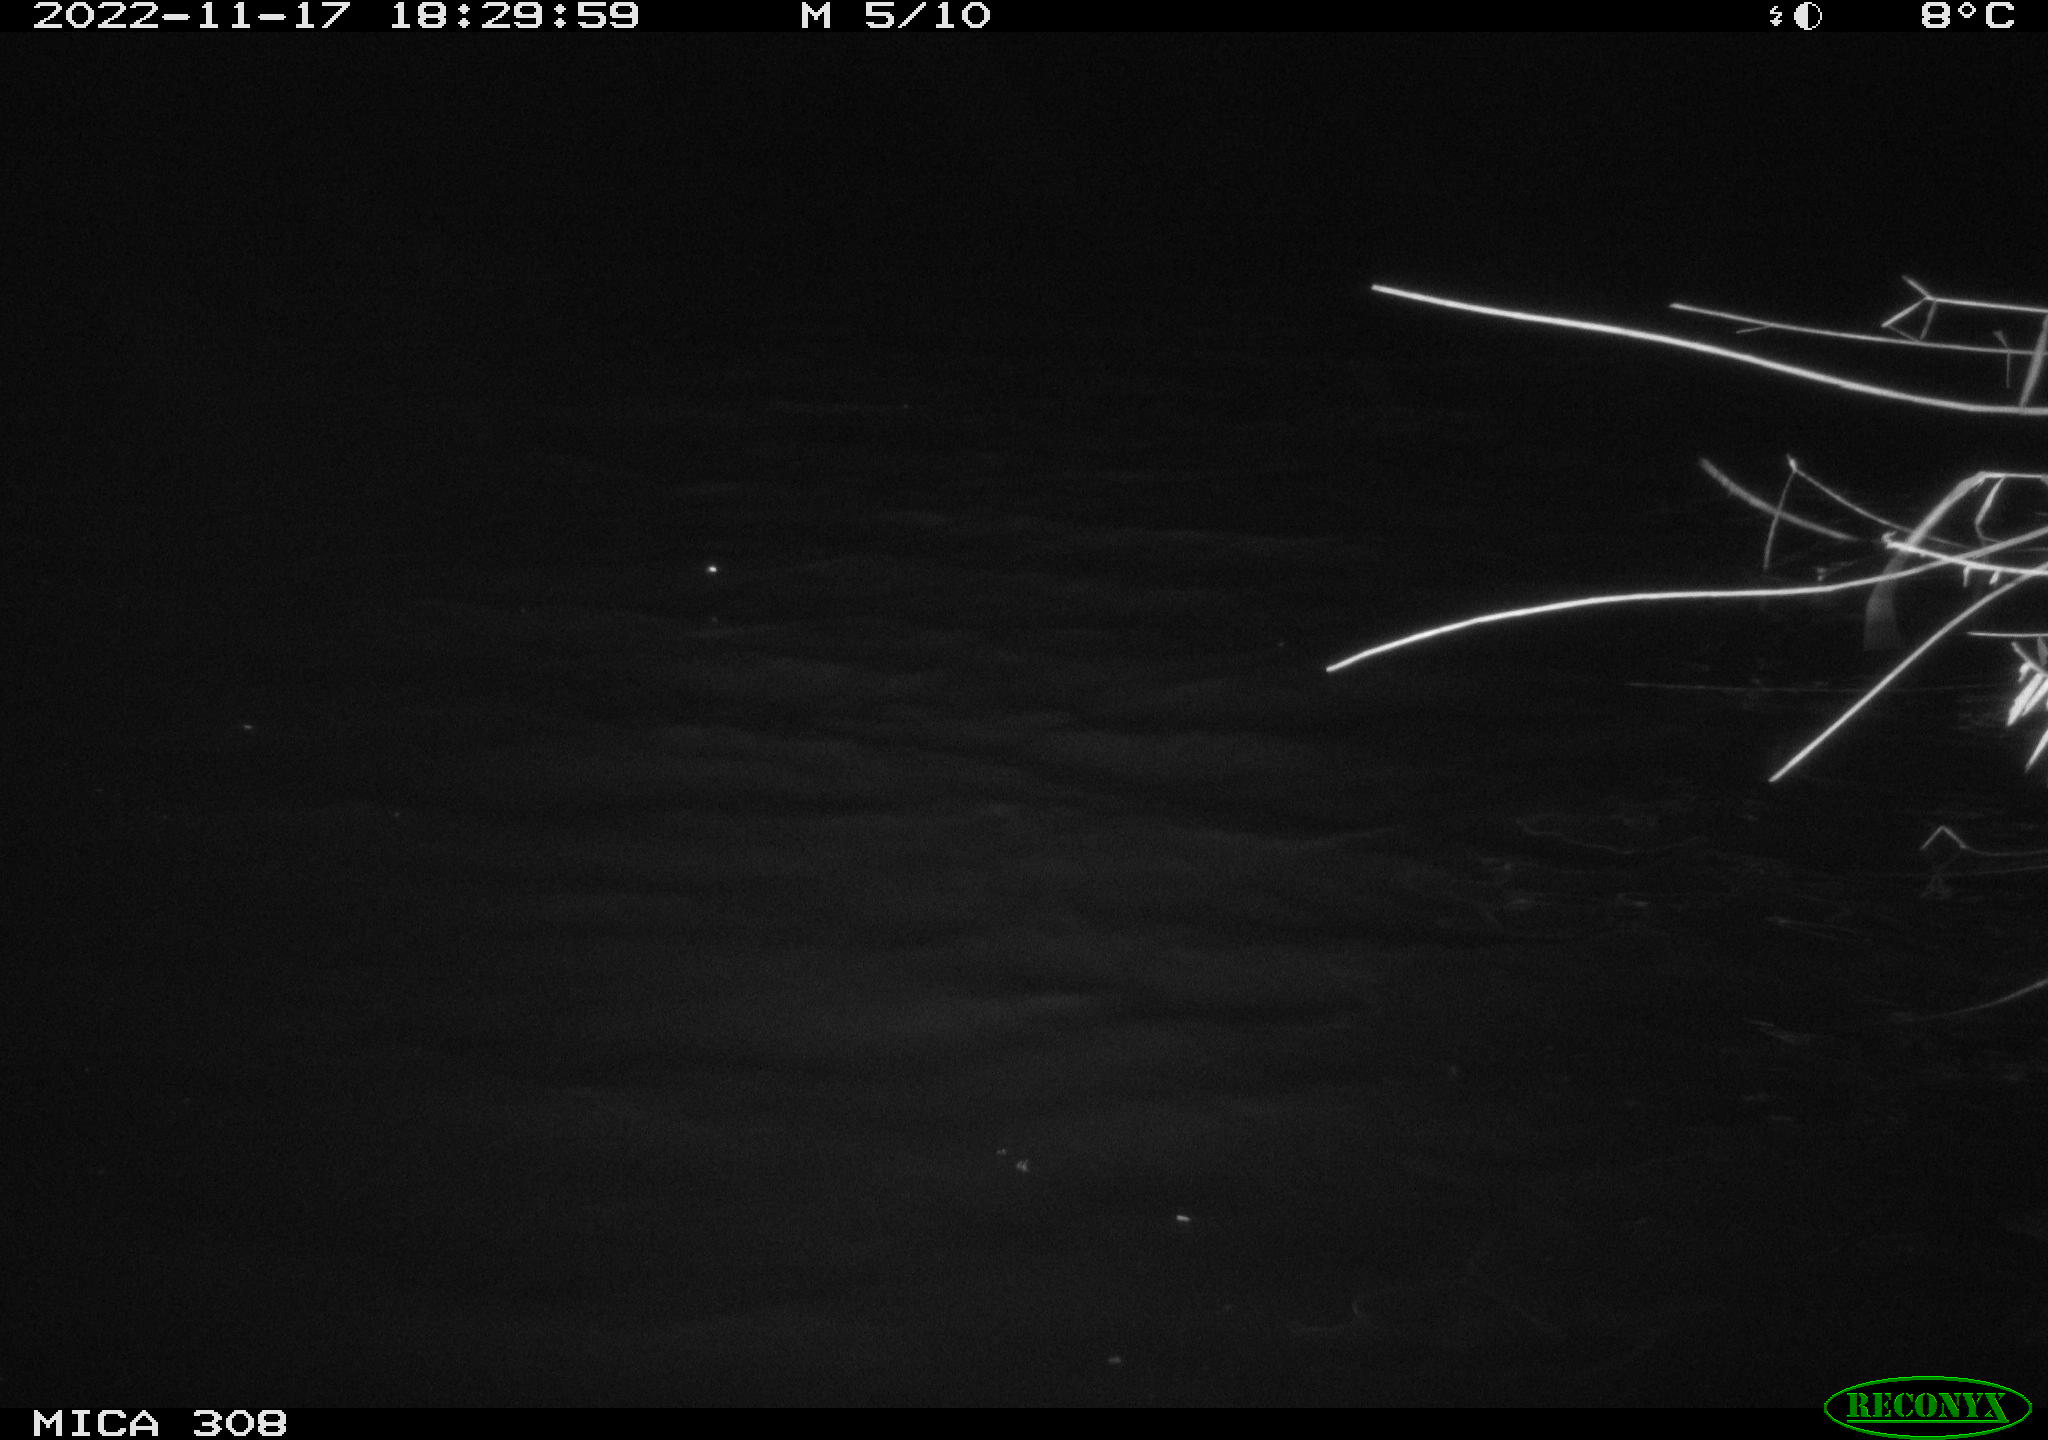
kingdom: Animalia
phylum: Chordata
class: Mammalia
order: Rodentia
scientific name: Rodentia
